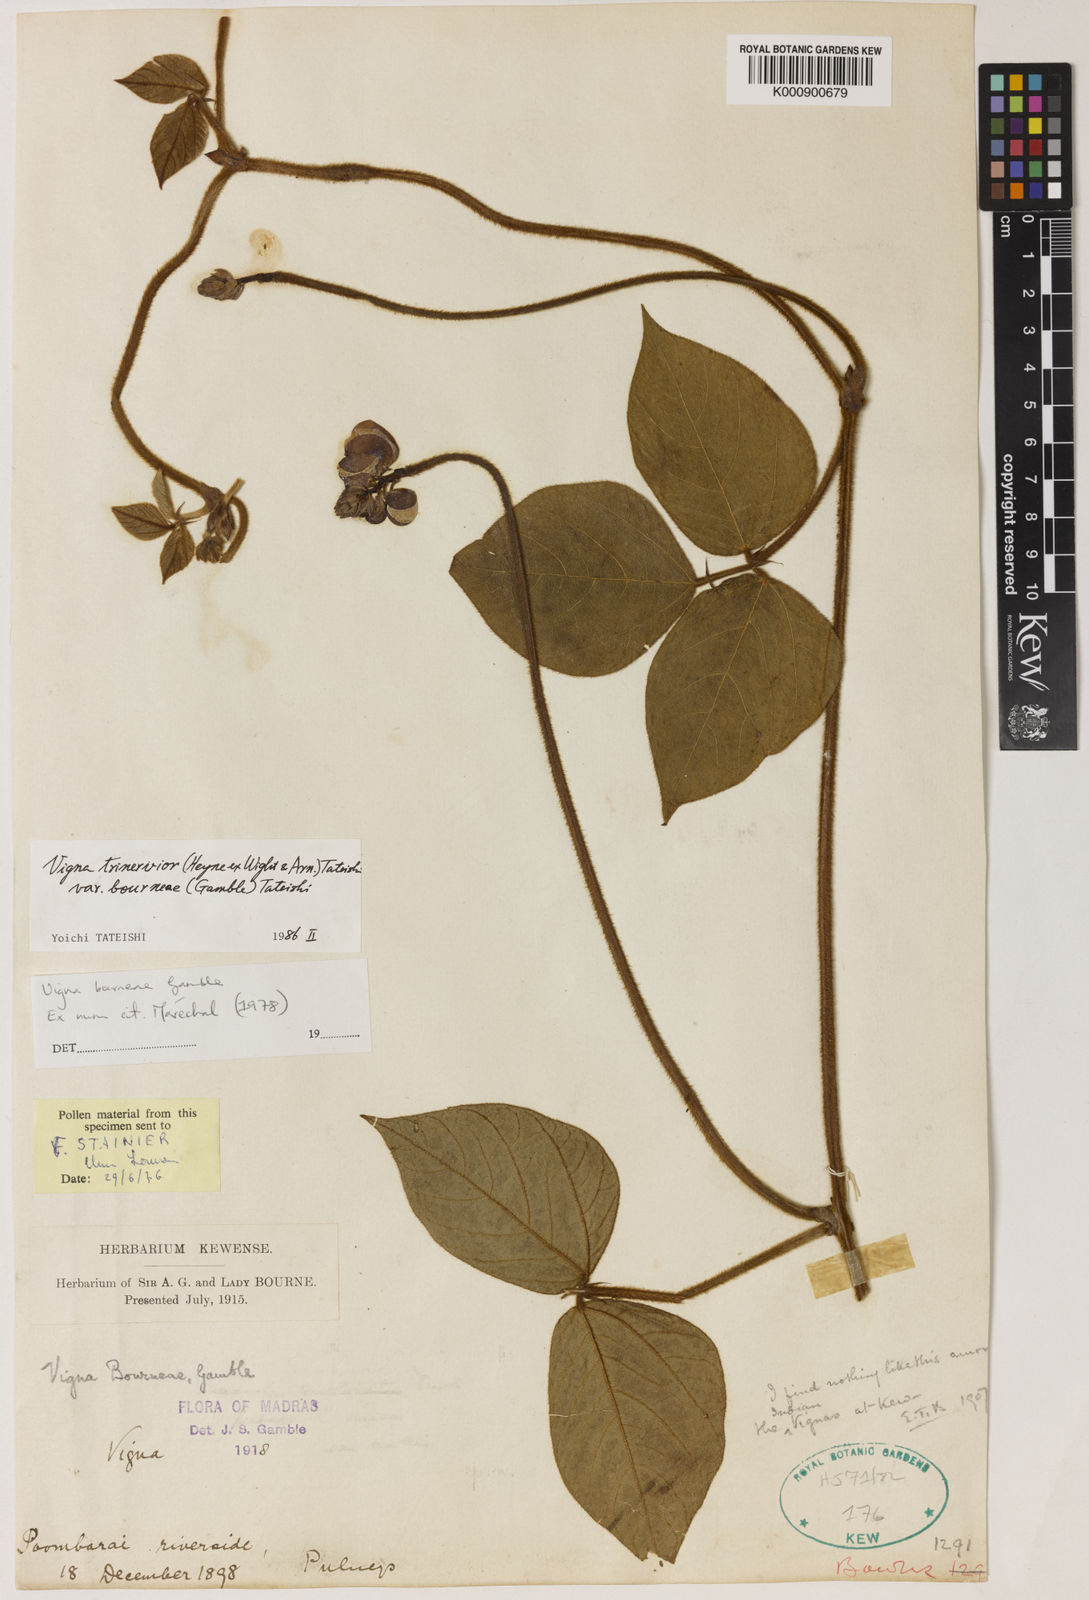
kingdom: Plantae
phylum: Tracheophyta
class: Magnoliopsida
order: Fabales
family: Fabaceae
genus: Vigna
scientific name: Vigna
